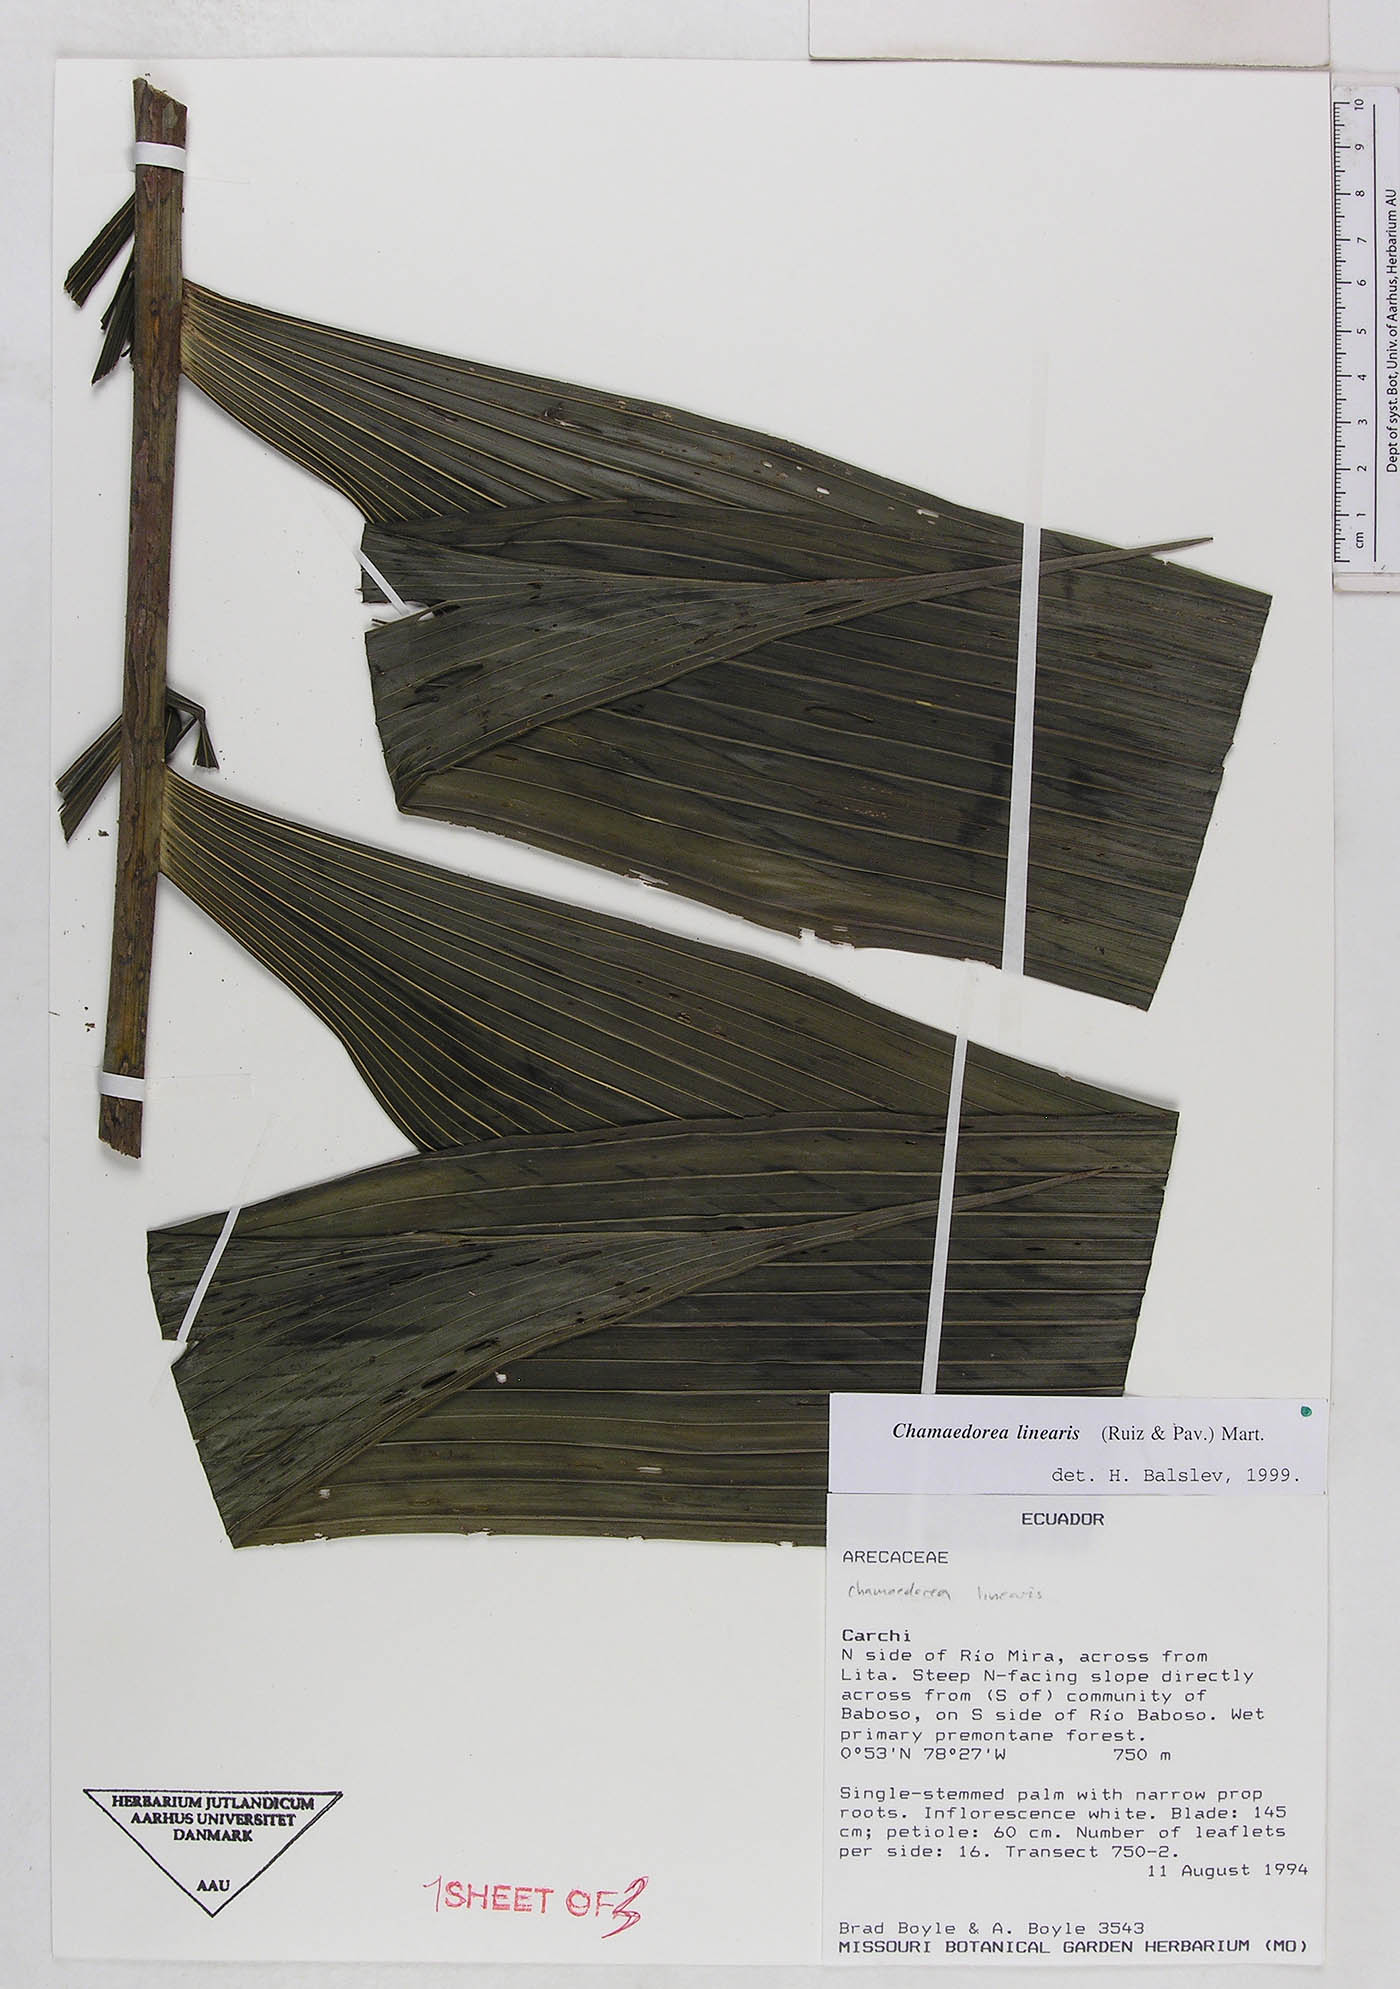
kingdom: Plantae
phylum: Tracheophyta
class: Liliopsida
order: Arecales
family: Arecaceae
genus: Chamaedorea
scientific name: Chamaedorea linearis
